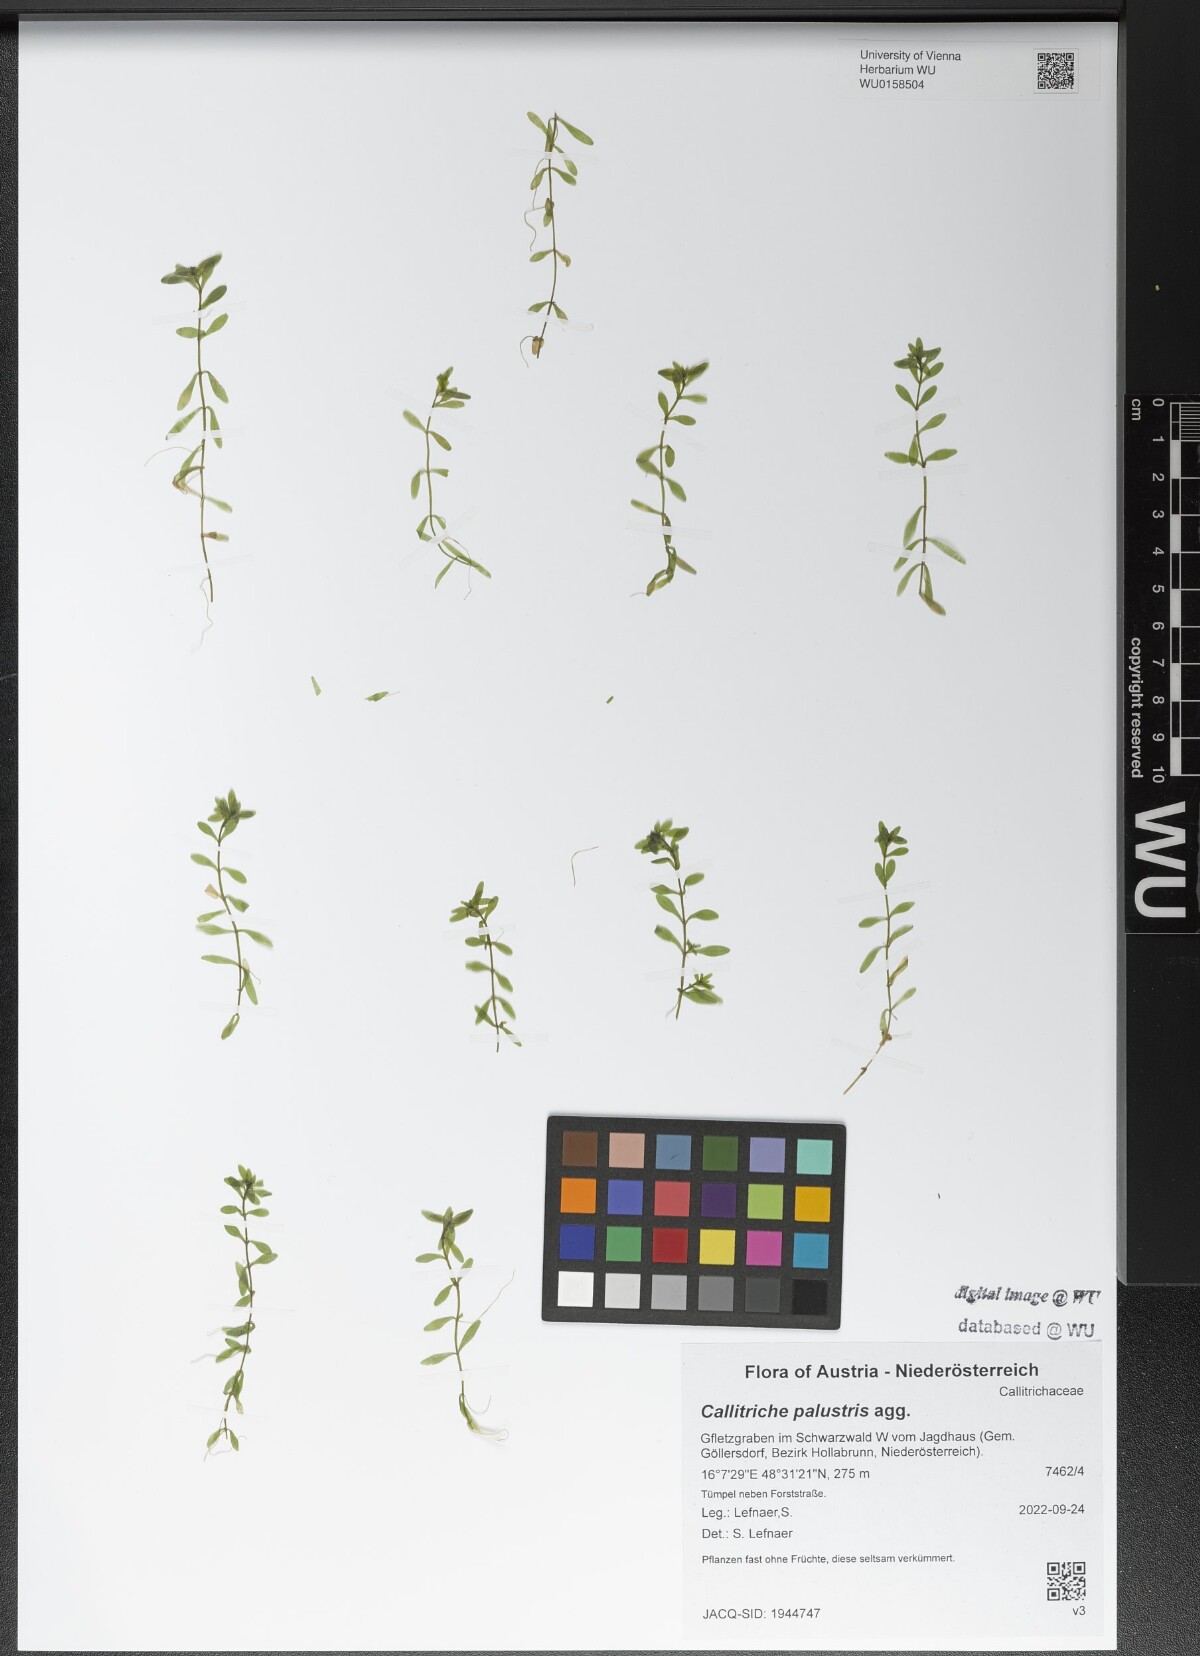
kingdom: Plantae
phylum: Tracheophyta
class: Magnoliopsida
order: Lamiales
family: Plantaginaceae
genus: Callitriche
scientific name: Callitriche palustris
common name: Spring water-starwort
